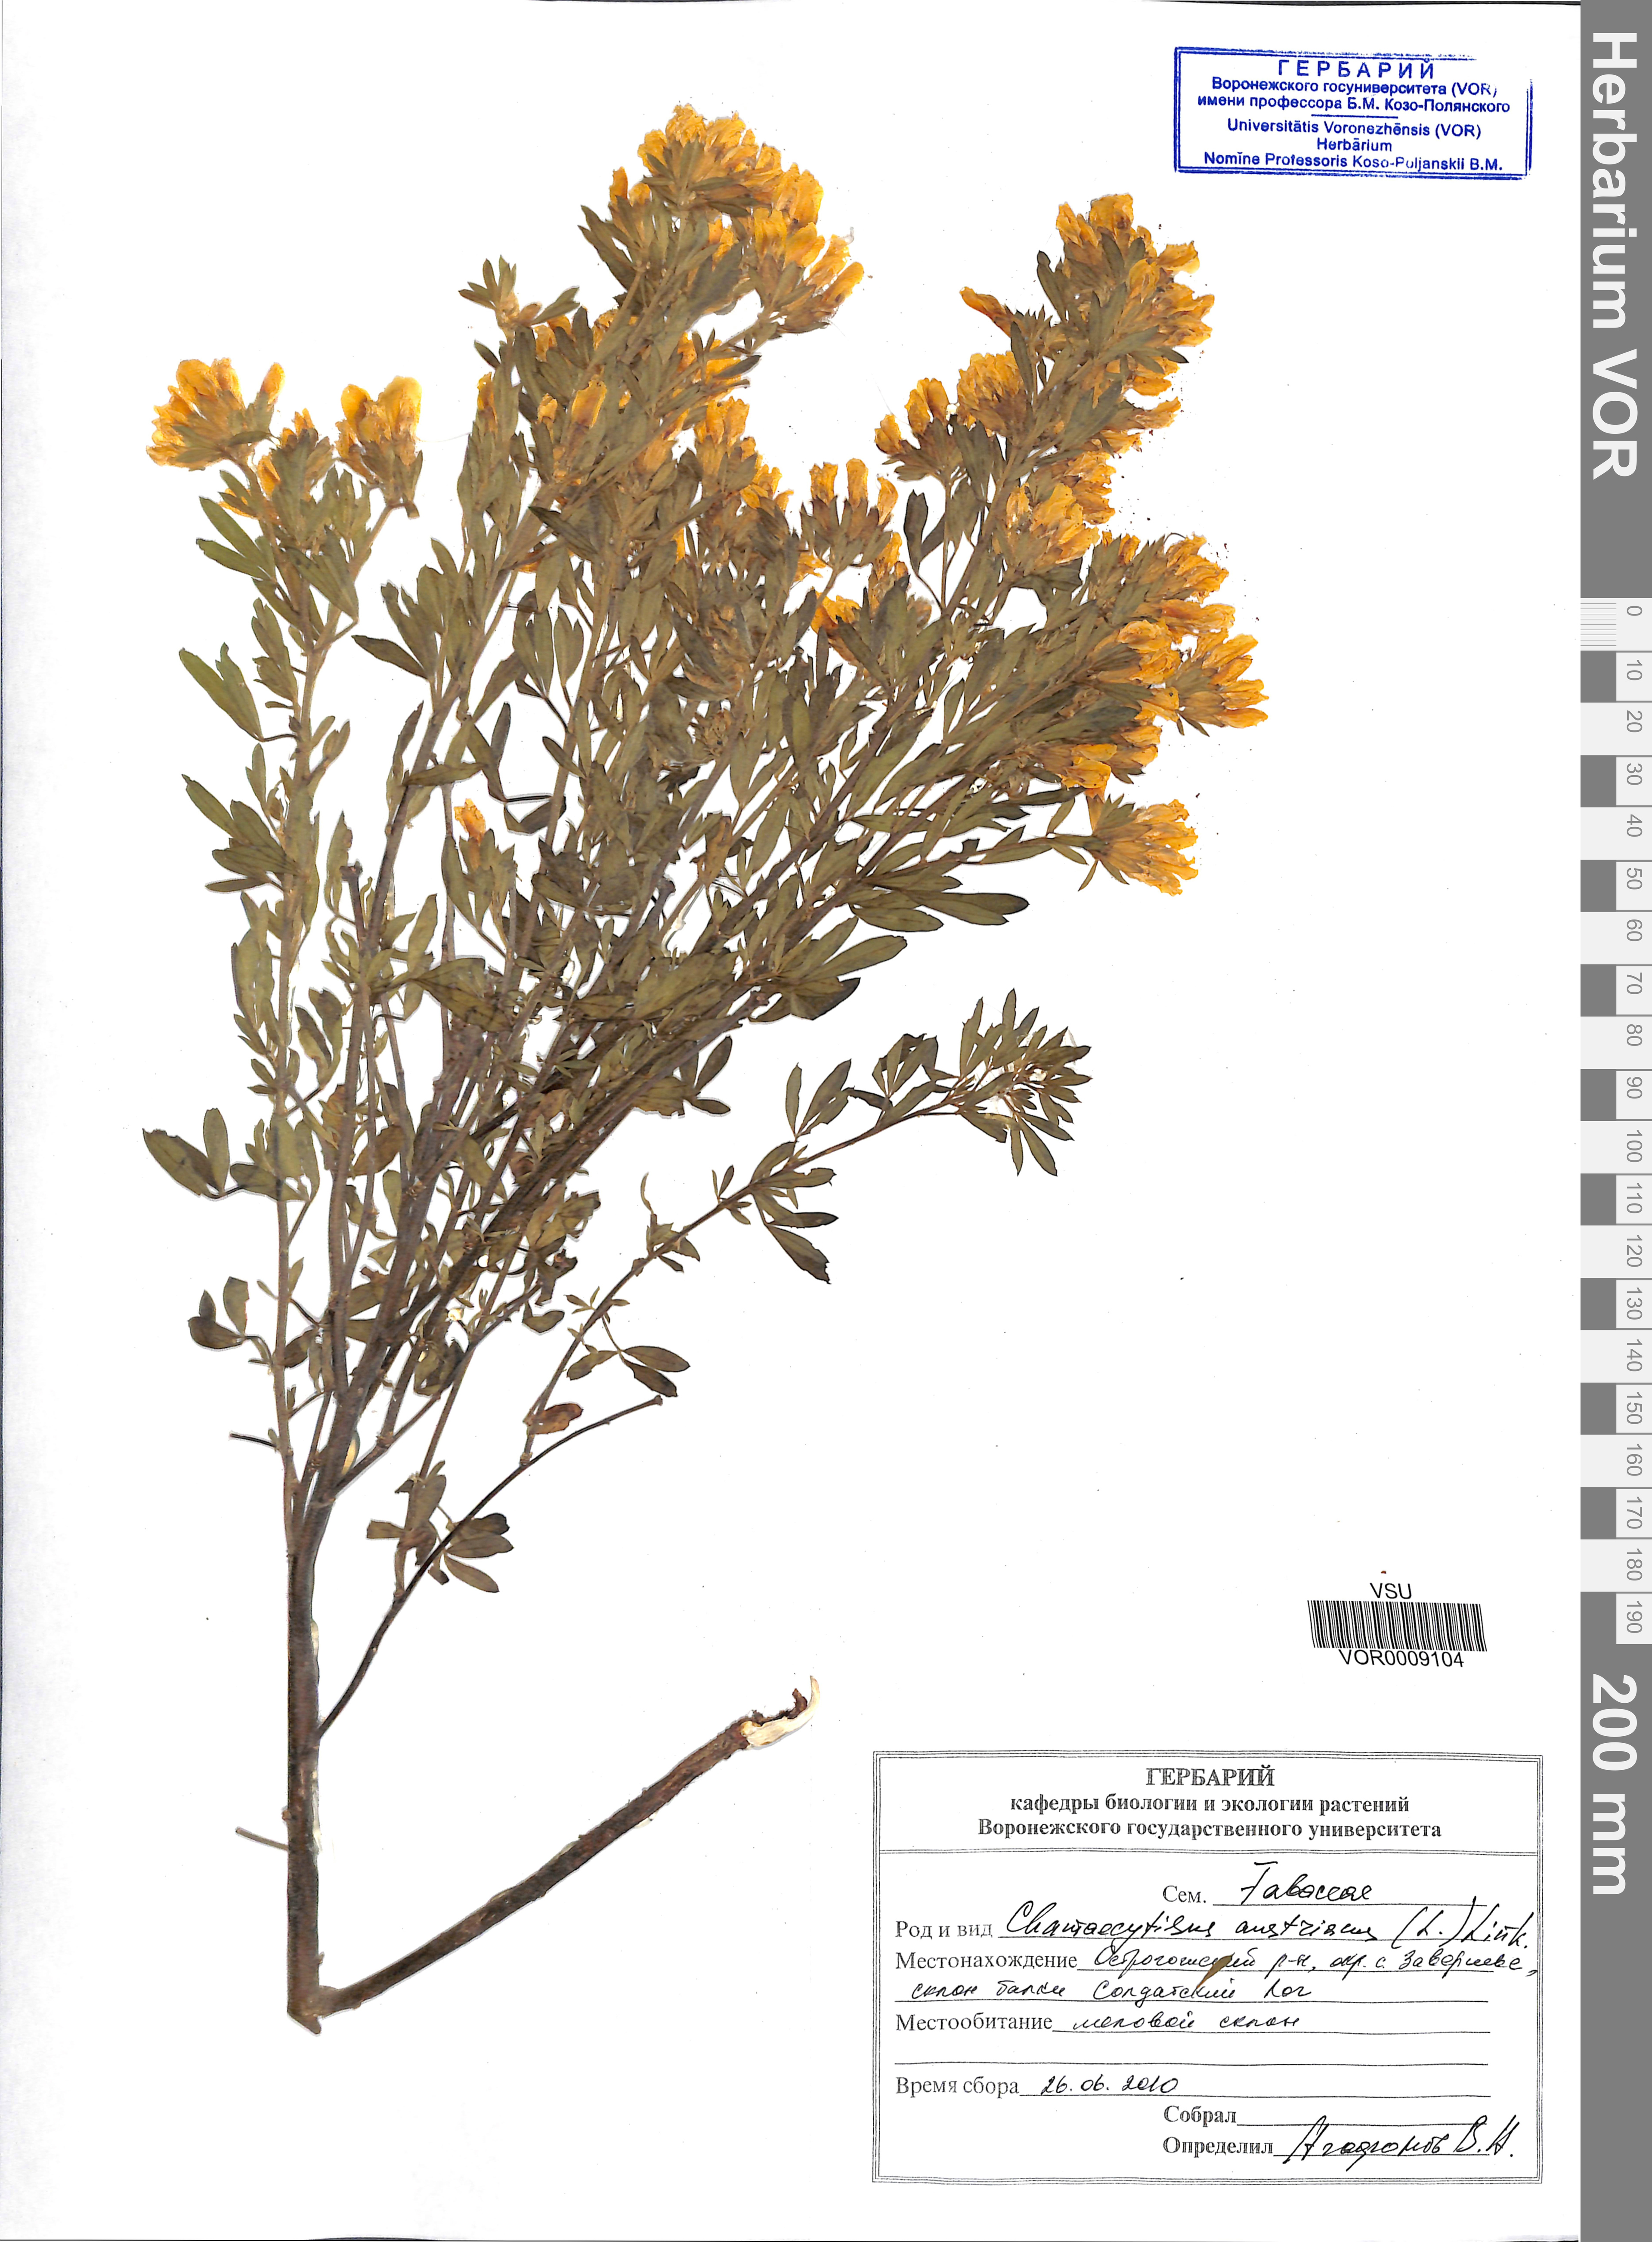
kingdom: Plantae
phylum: Tracheophyta
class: Magnoliopsida
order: Fabales
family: Fabaceae
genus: Chamaecytisus
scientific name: Chamaecytisus austriacus
